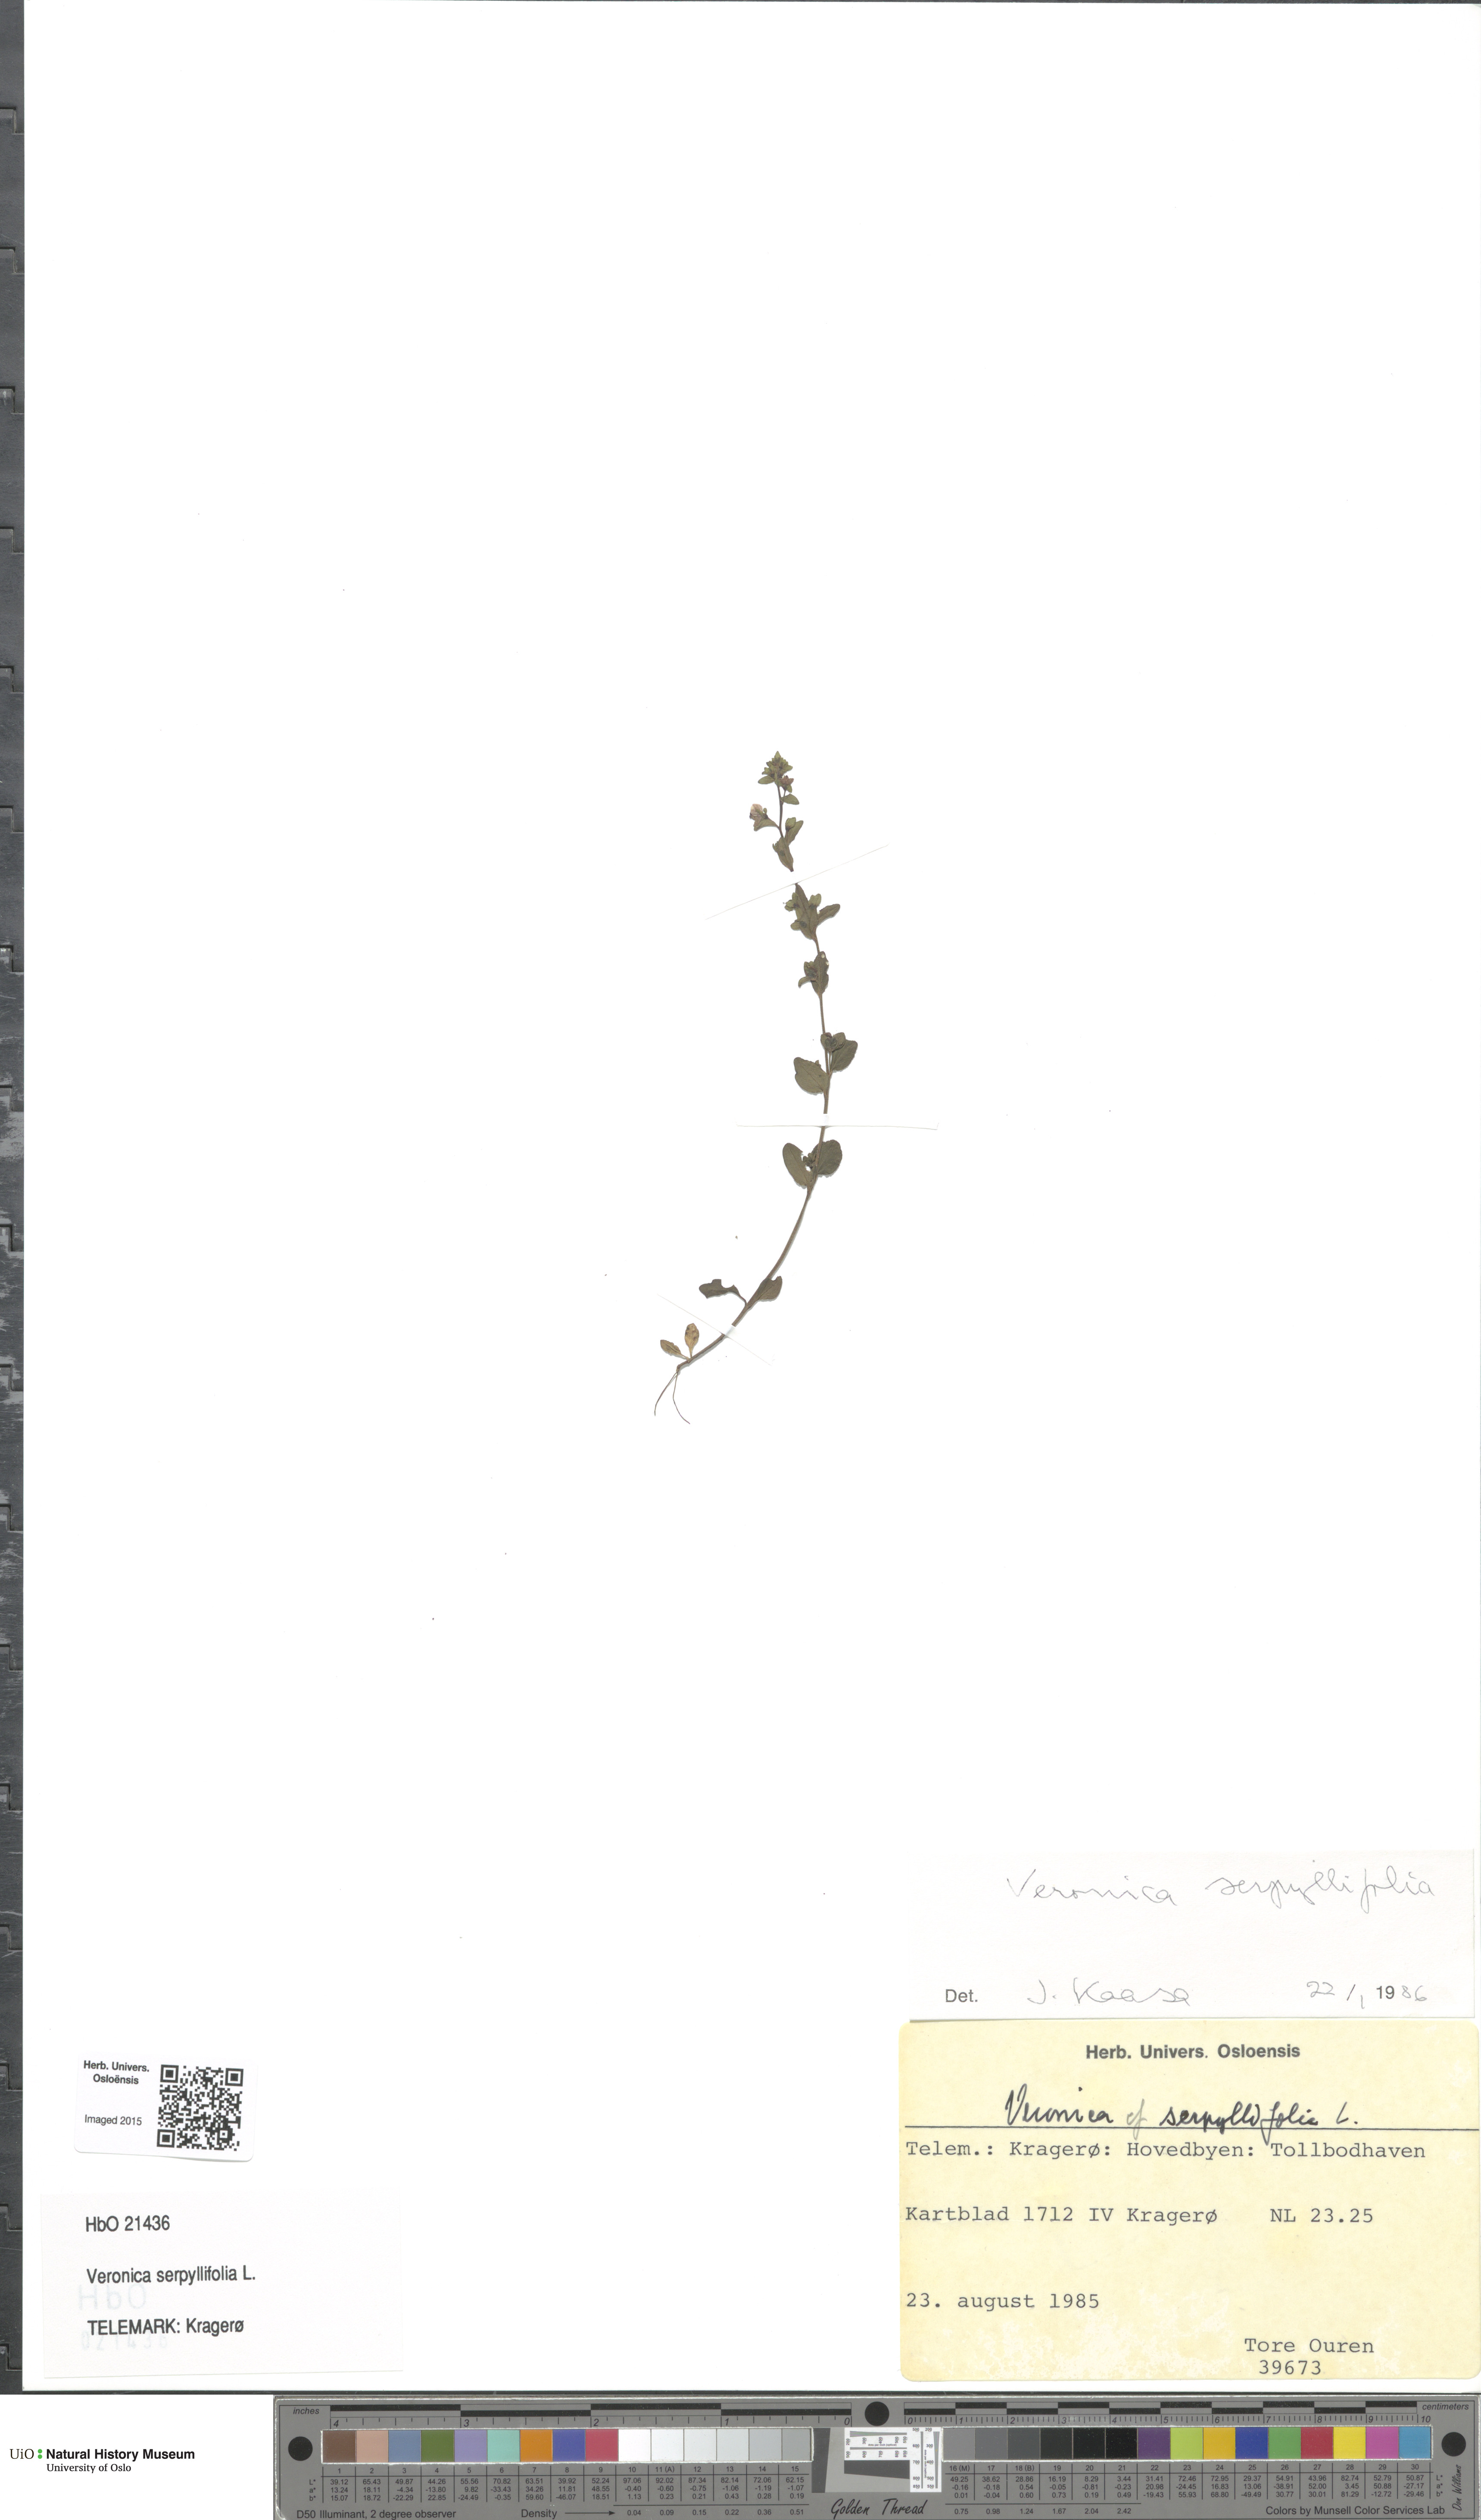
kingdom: Plantae
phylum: Tracheophyta
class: Magnoliopsida
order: Lamiales
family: Plantaginaceae
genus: Veronica
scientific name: Veronica serpyllifolia
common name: Thyme-leaved speedwell
